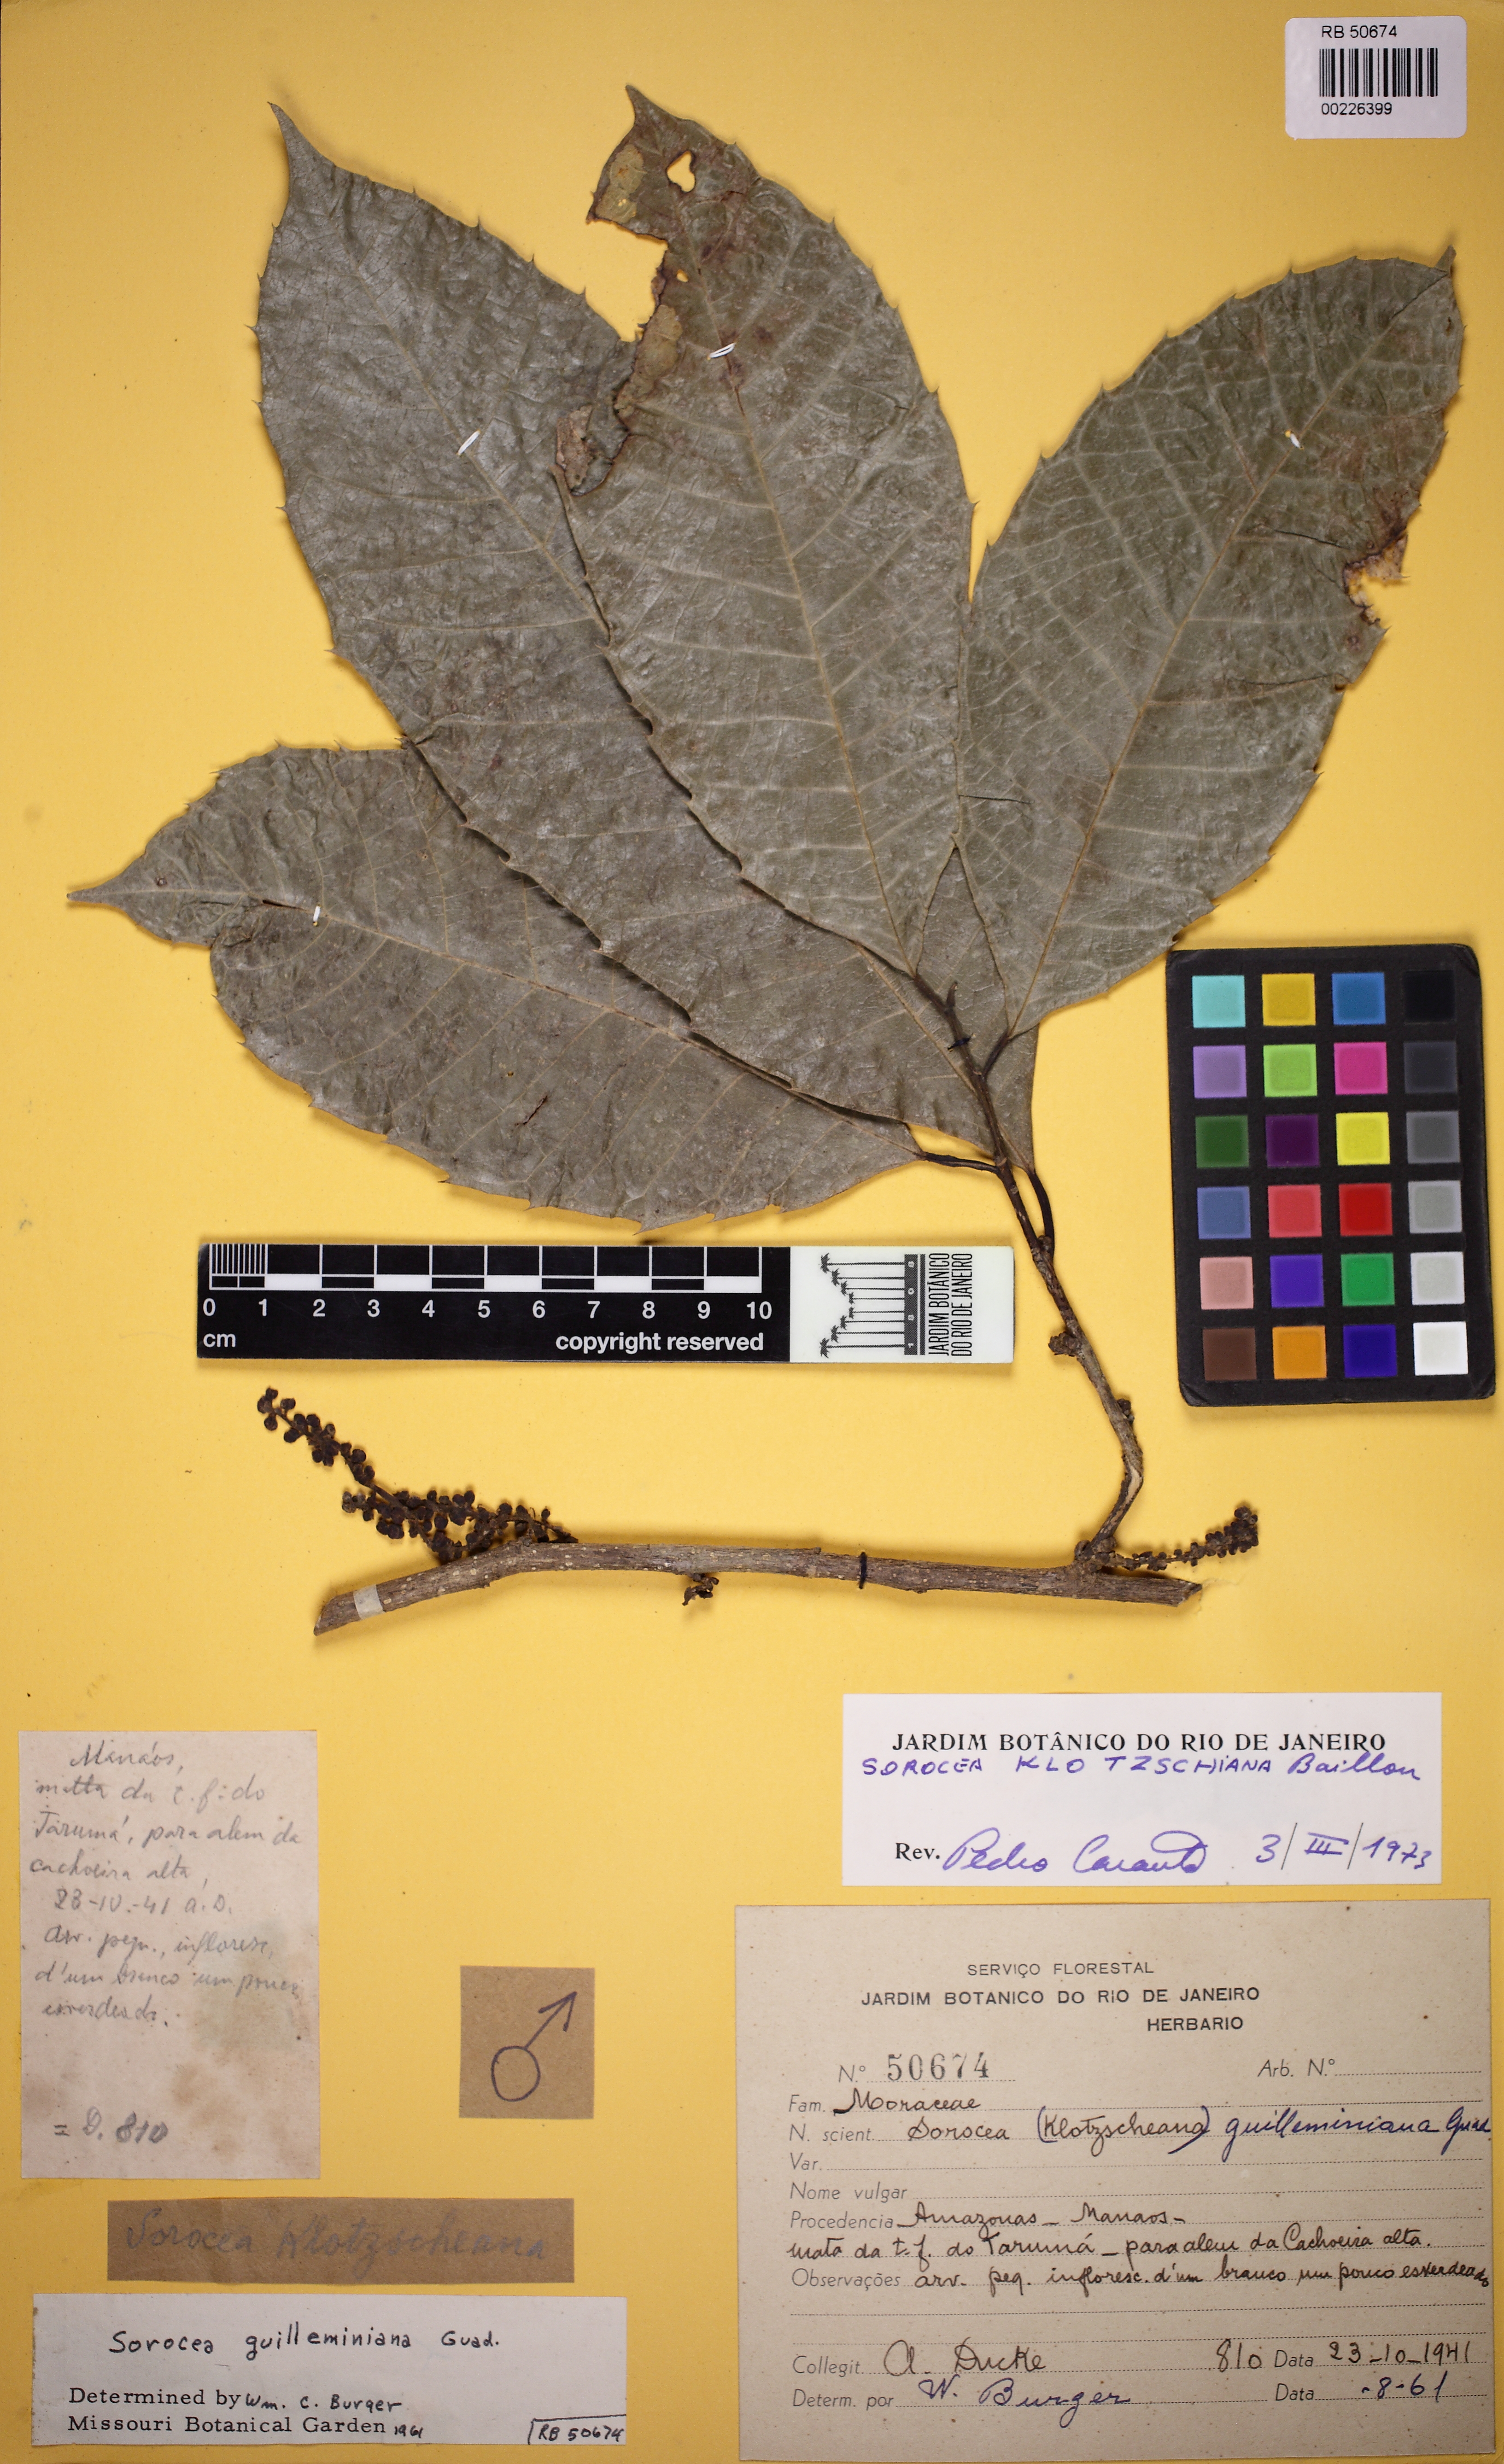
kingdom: Plantae
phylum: Tracheophyta
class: Magnoliopsida
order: Rosales
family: Moraceae
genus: Sorocea
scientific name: Sorocea guilleminiana
